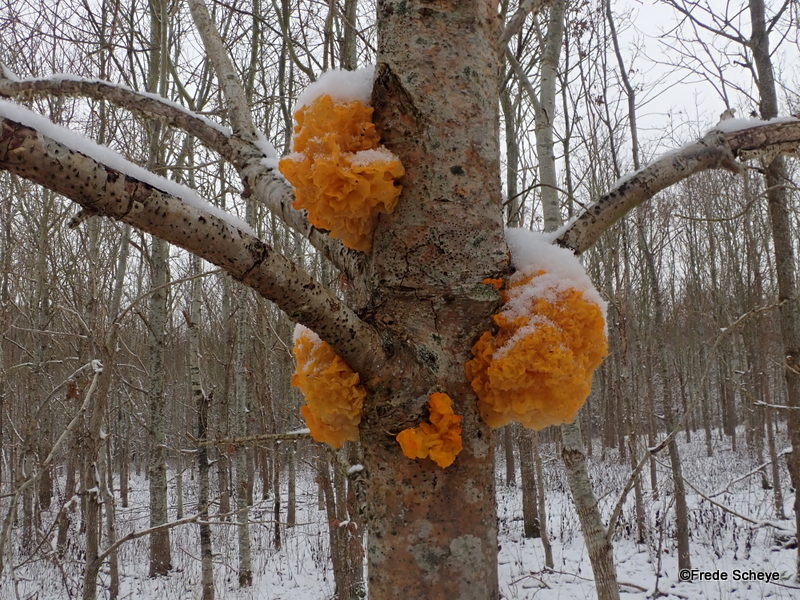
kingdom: Fungi
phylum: Basidiomycota
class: Tremellomycetes
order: Tremellales
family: Tremellaceae
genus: Tremella
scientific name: Tremella mesenterica
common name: gul bævresvamp
